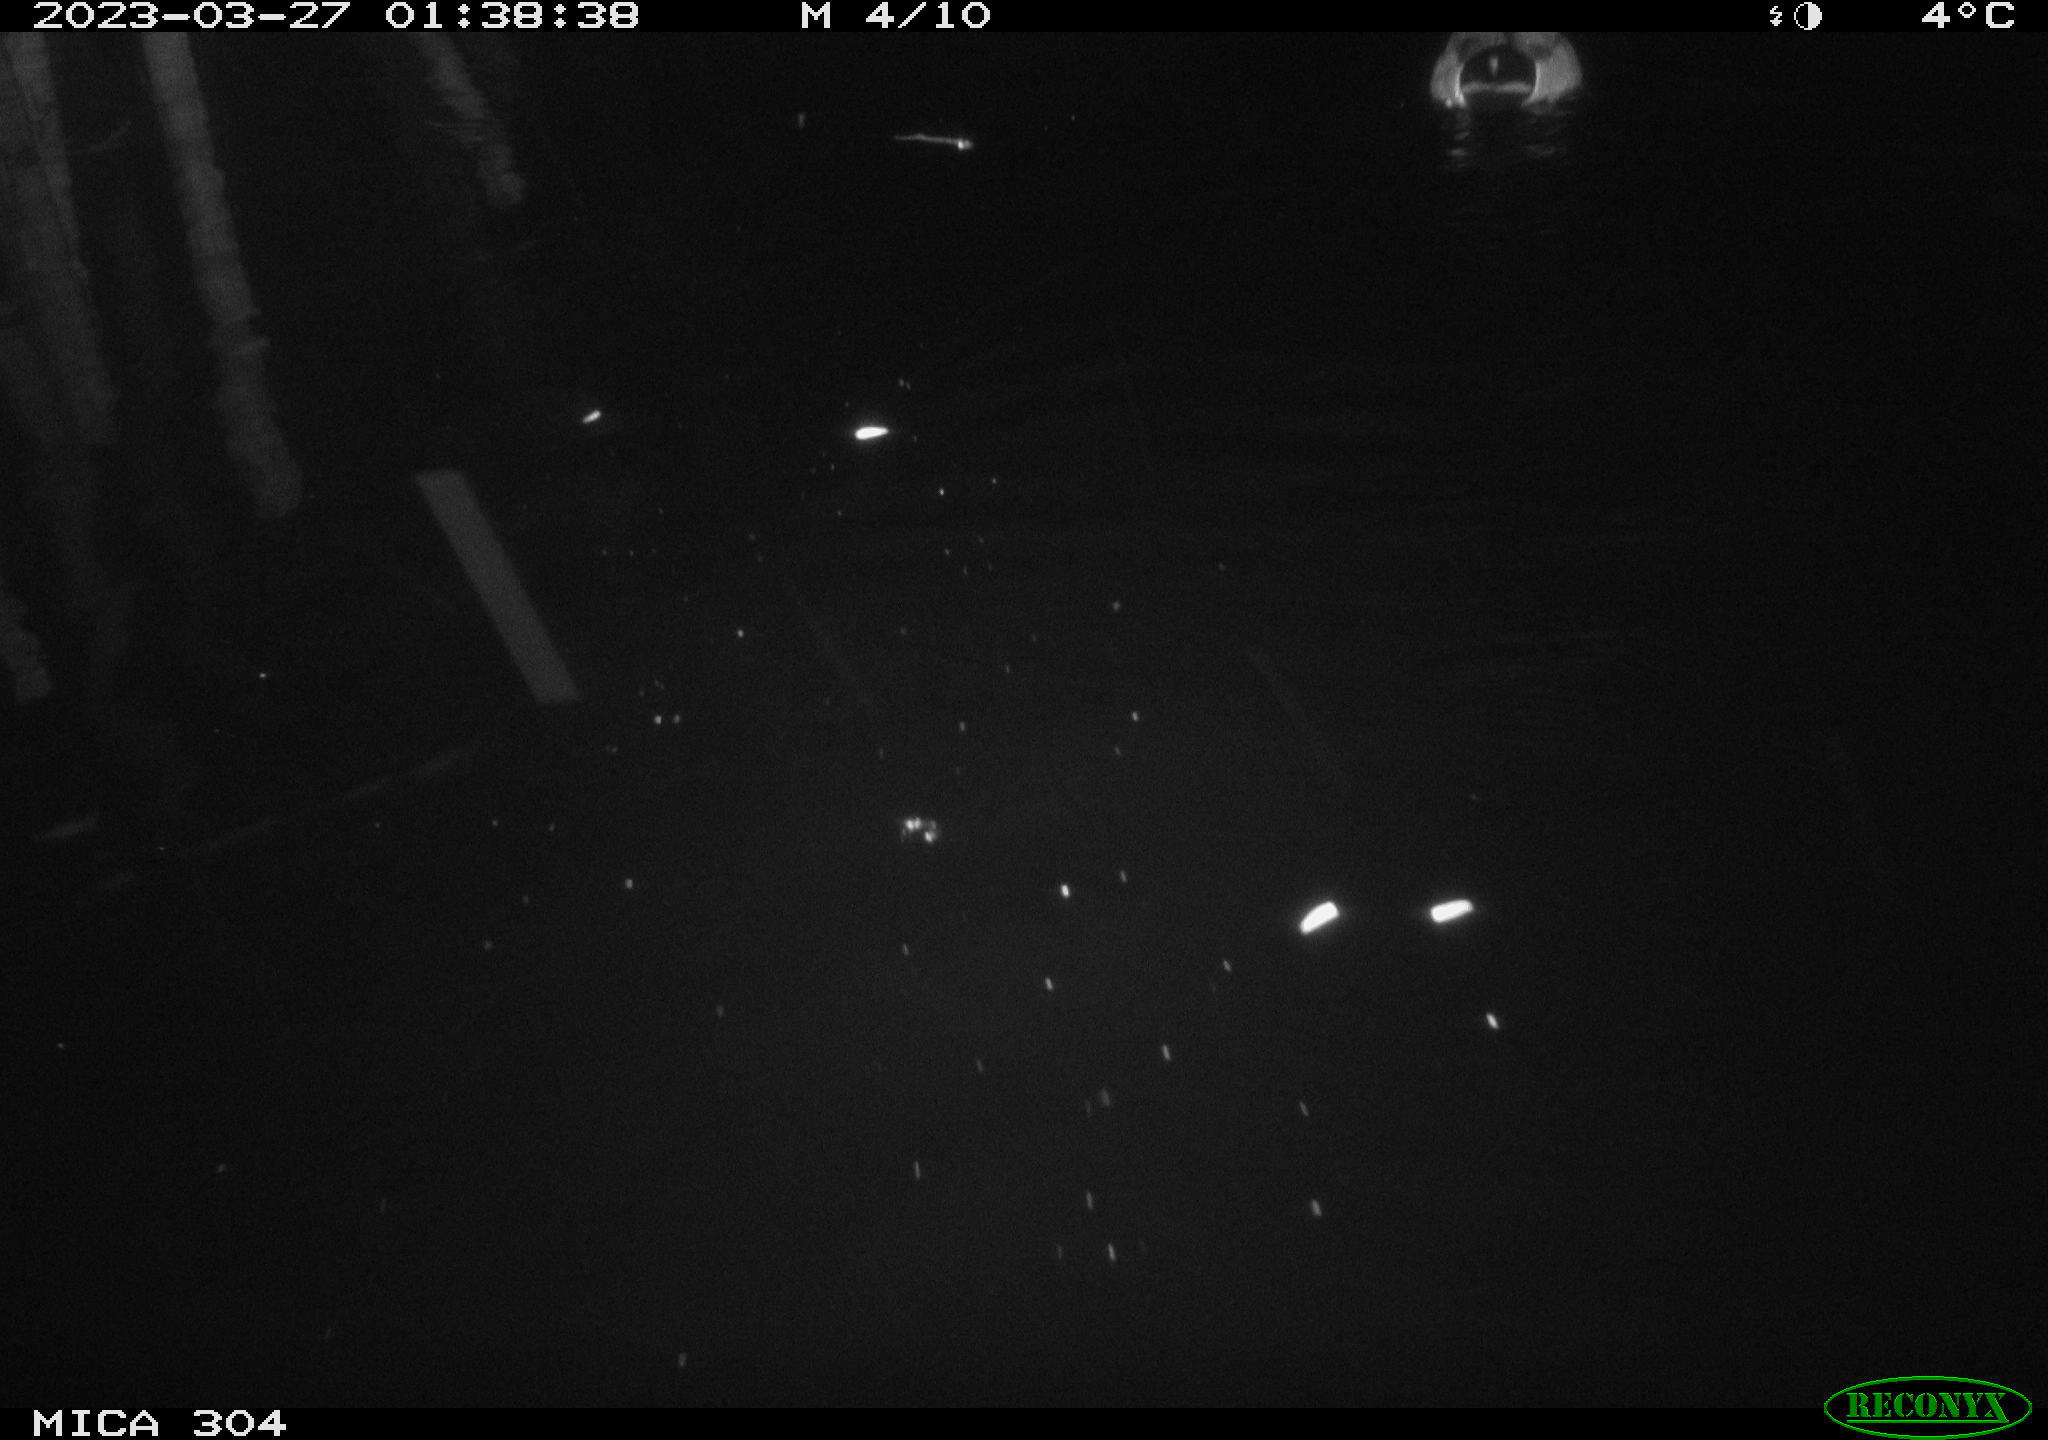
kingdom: Animalia
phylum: Chordata
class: Aves
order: Anseriformes
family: Anatidae
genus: Anas
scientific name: Anas
